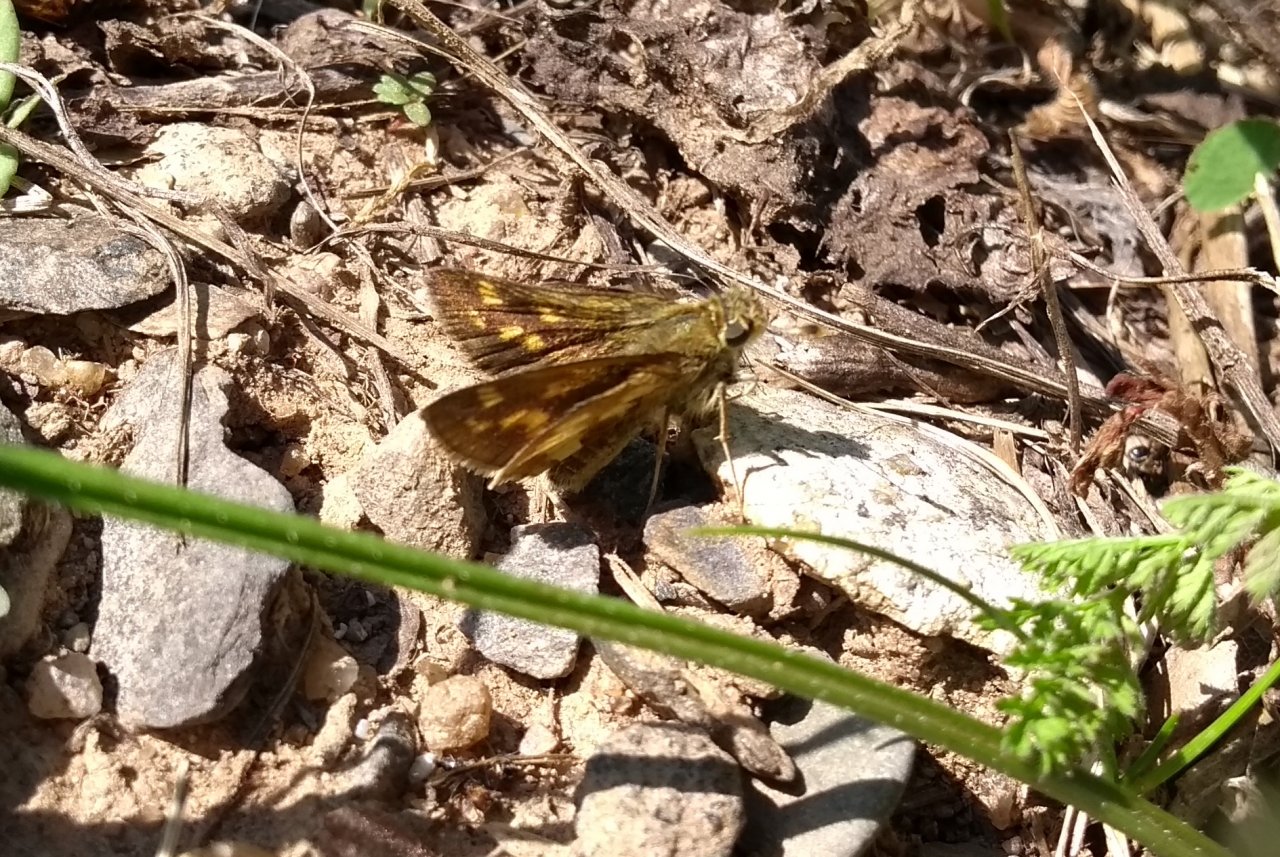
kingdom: Animalia
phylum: Arthropoda
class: Insecta
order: Lepidoptera
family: Hesperiidae
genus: Polites
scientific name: Polites coras
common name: Peck's Skipper
